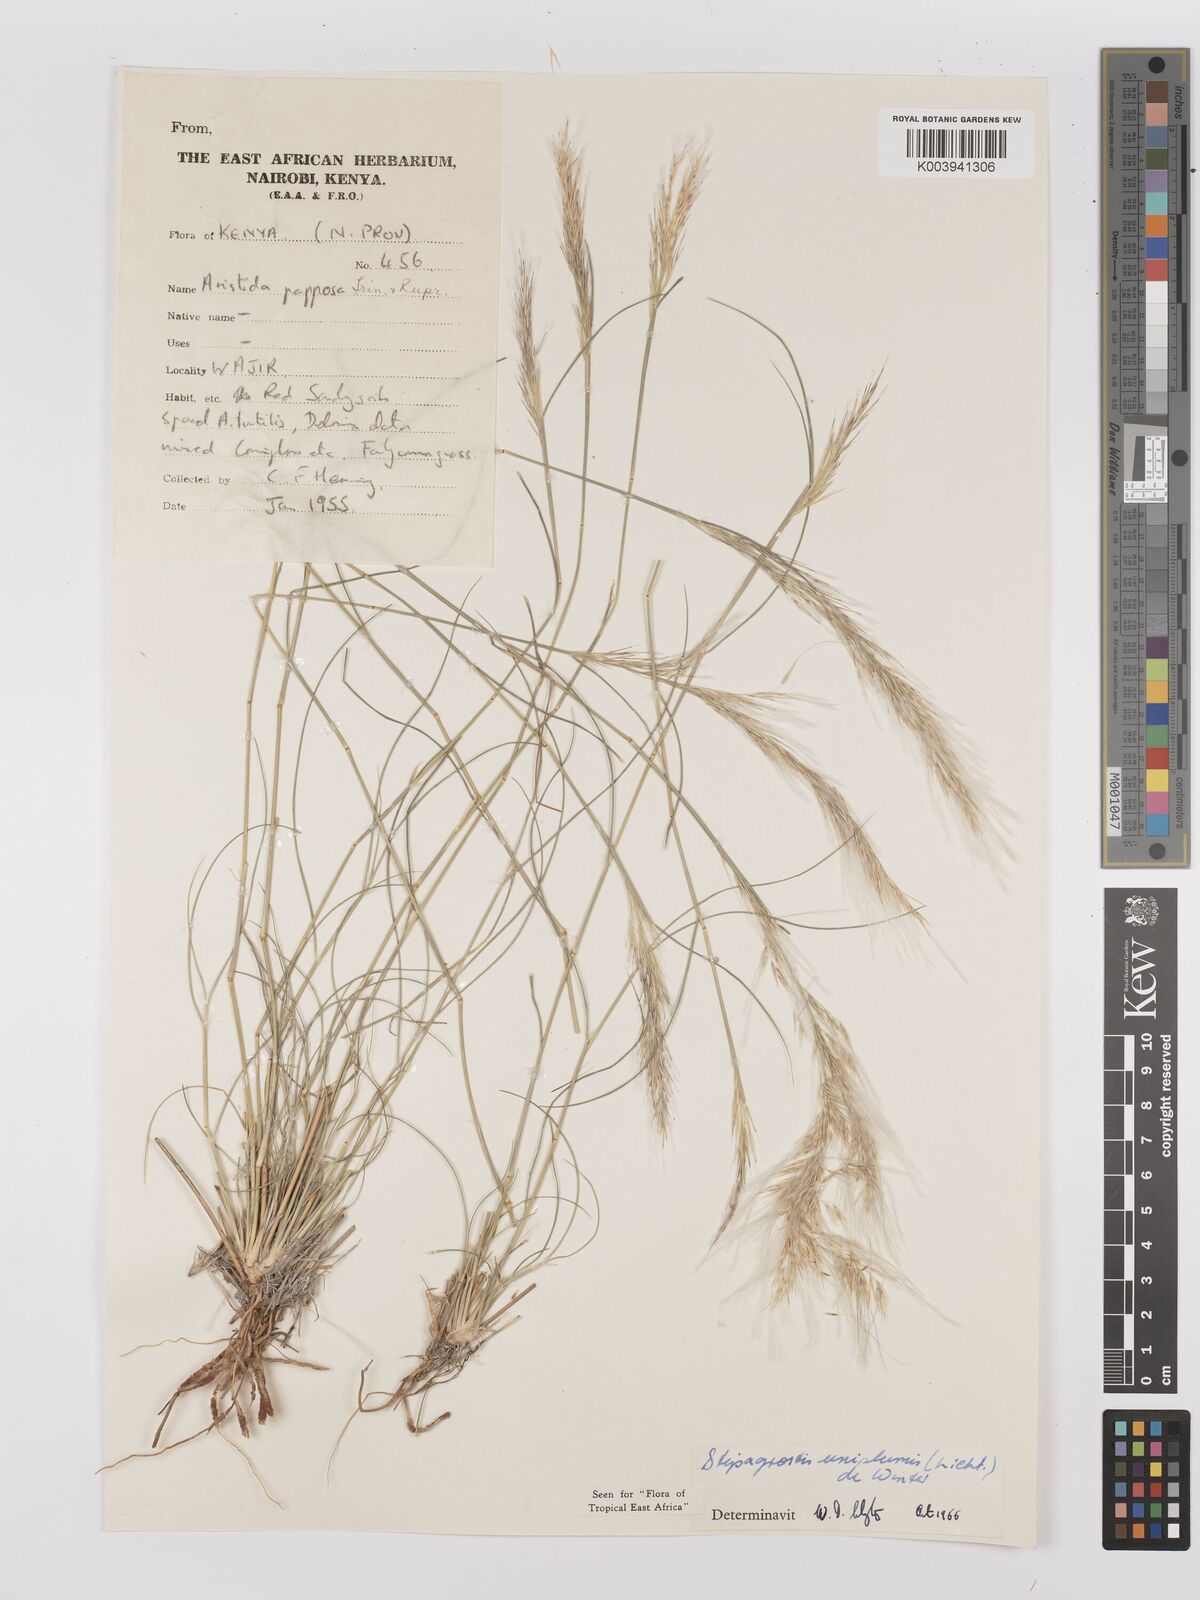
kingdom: Plantae
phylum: Tracheophyta
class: Liliopsida
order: Poales
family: Poaceae
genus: Stipagrostis
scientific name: Stipagrostis uniplumis
